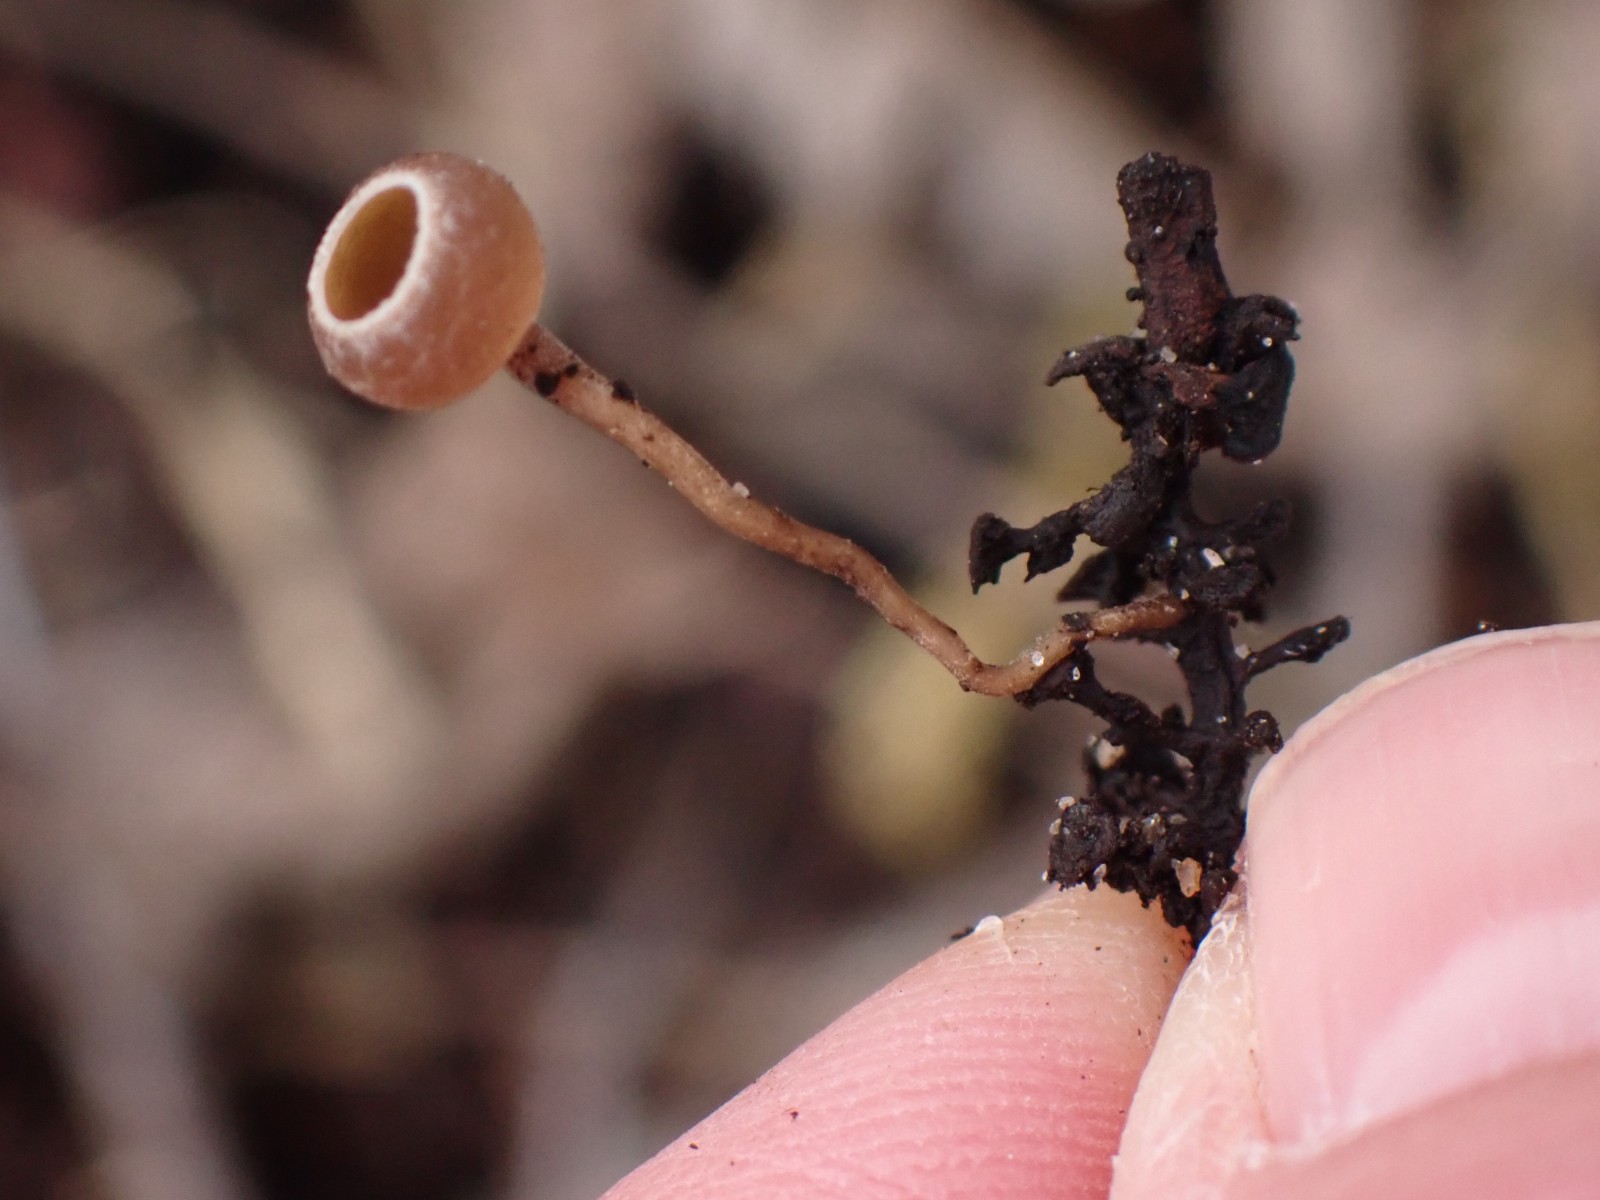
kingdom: Fungi
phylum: Ascomycota
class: Leotiomycetes
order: Helotiales
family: Sclerotiniaceae
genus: Ciboria
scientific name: Ciboria amentacea
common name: ellerakle-knoldskive
